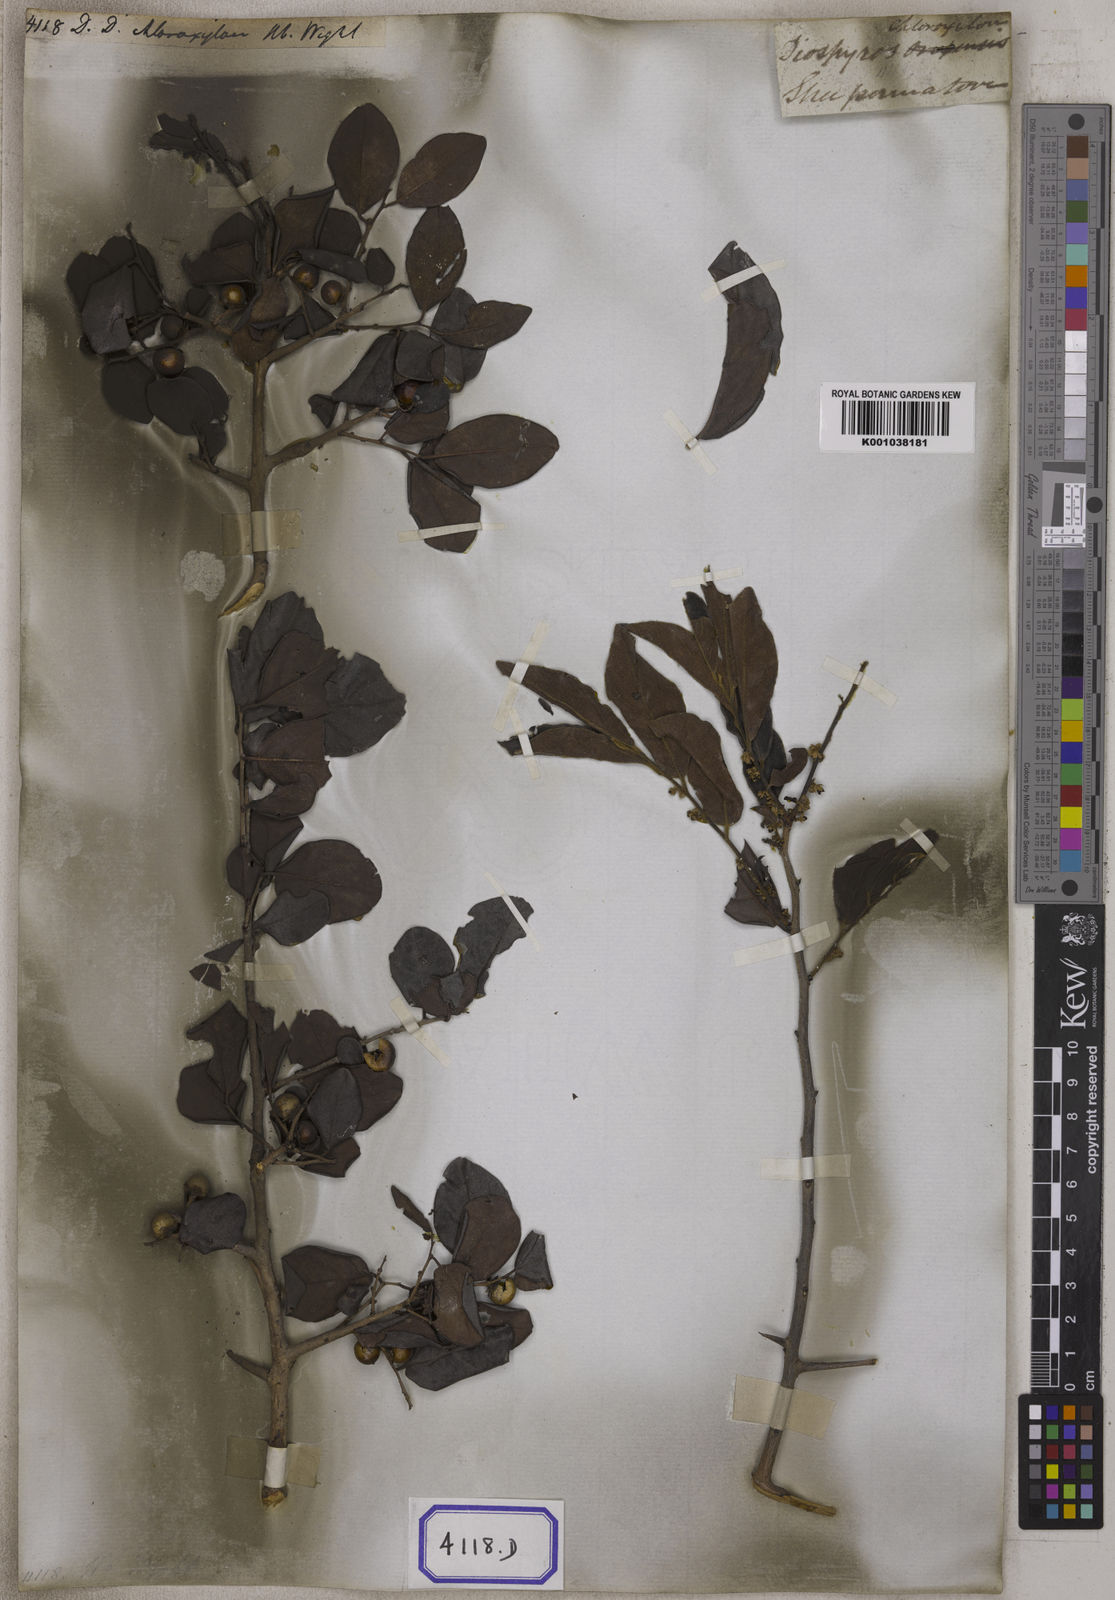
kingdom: Plantae
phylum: Tracheophyta
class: Magnoliopsida
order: Ericales
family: Ebenaceae
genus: Diospyros
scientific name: Diospyros chloroxylon
